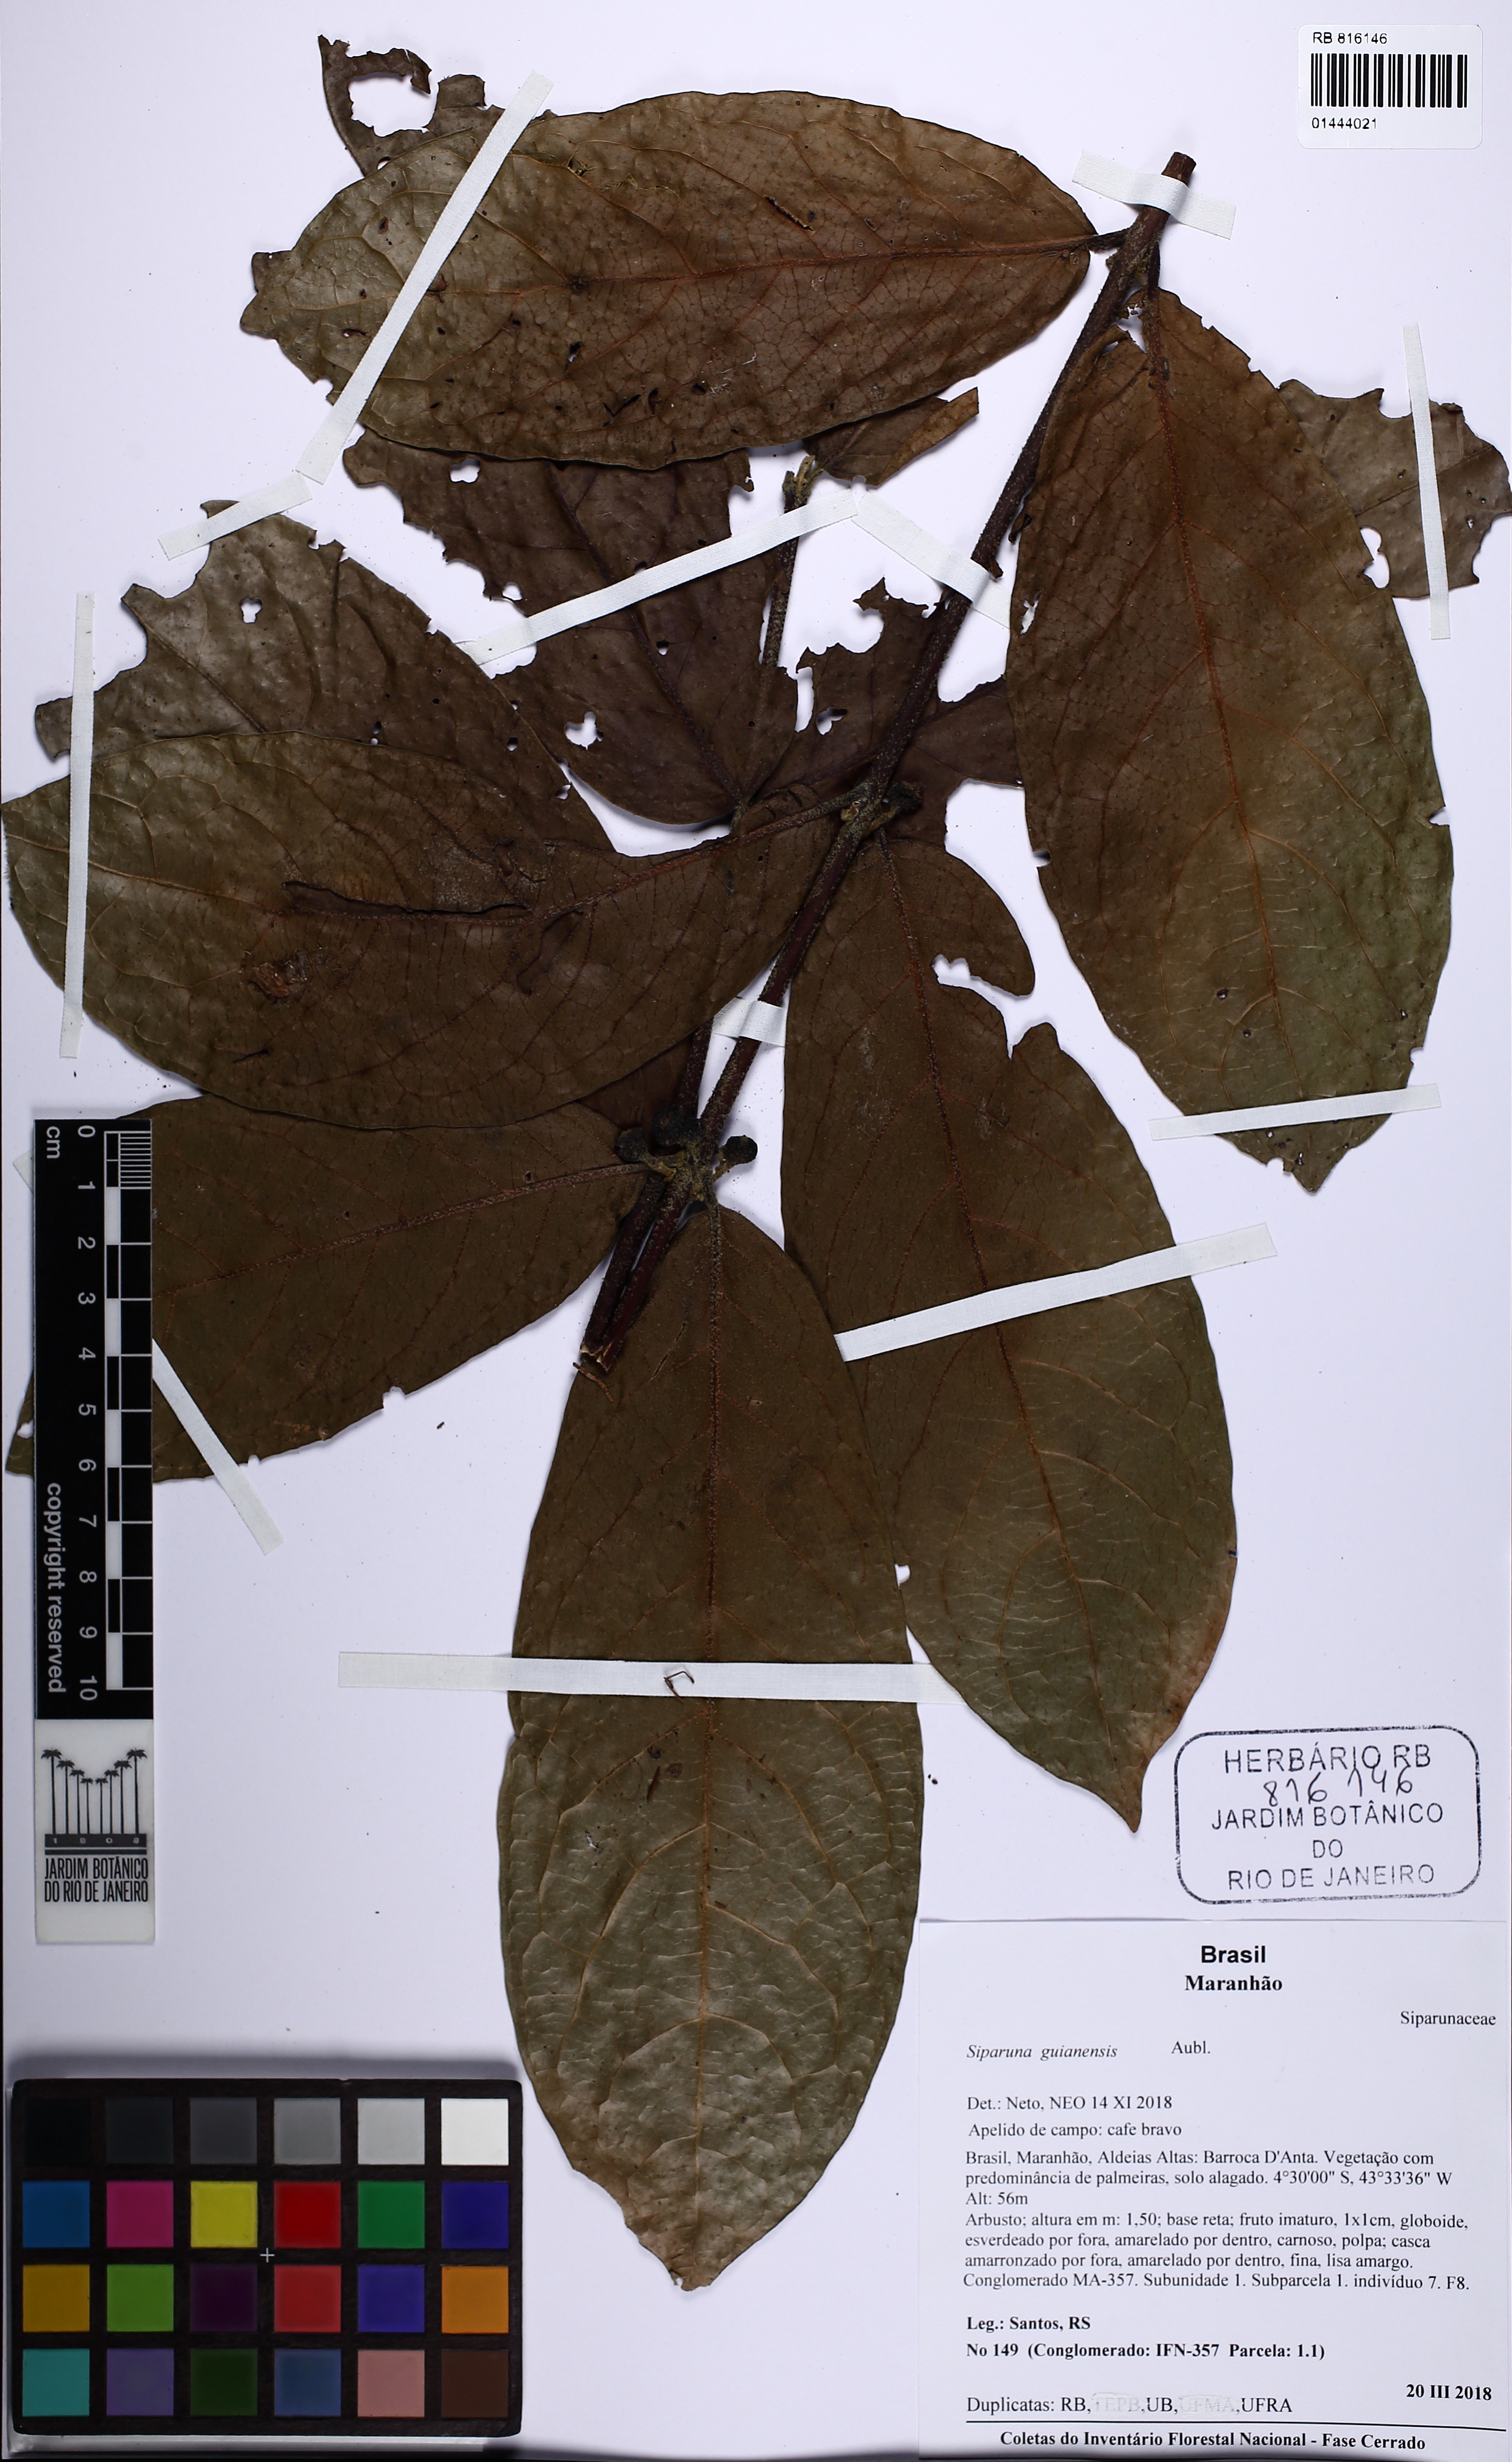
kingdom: Plantae
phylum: Tracheophyta
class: Magnoliopsida
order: Laurales
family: Siparunaceae
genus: Siparuna
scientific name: Siparuna guianensis
